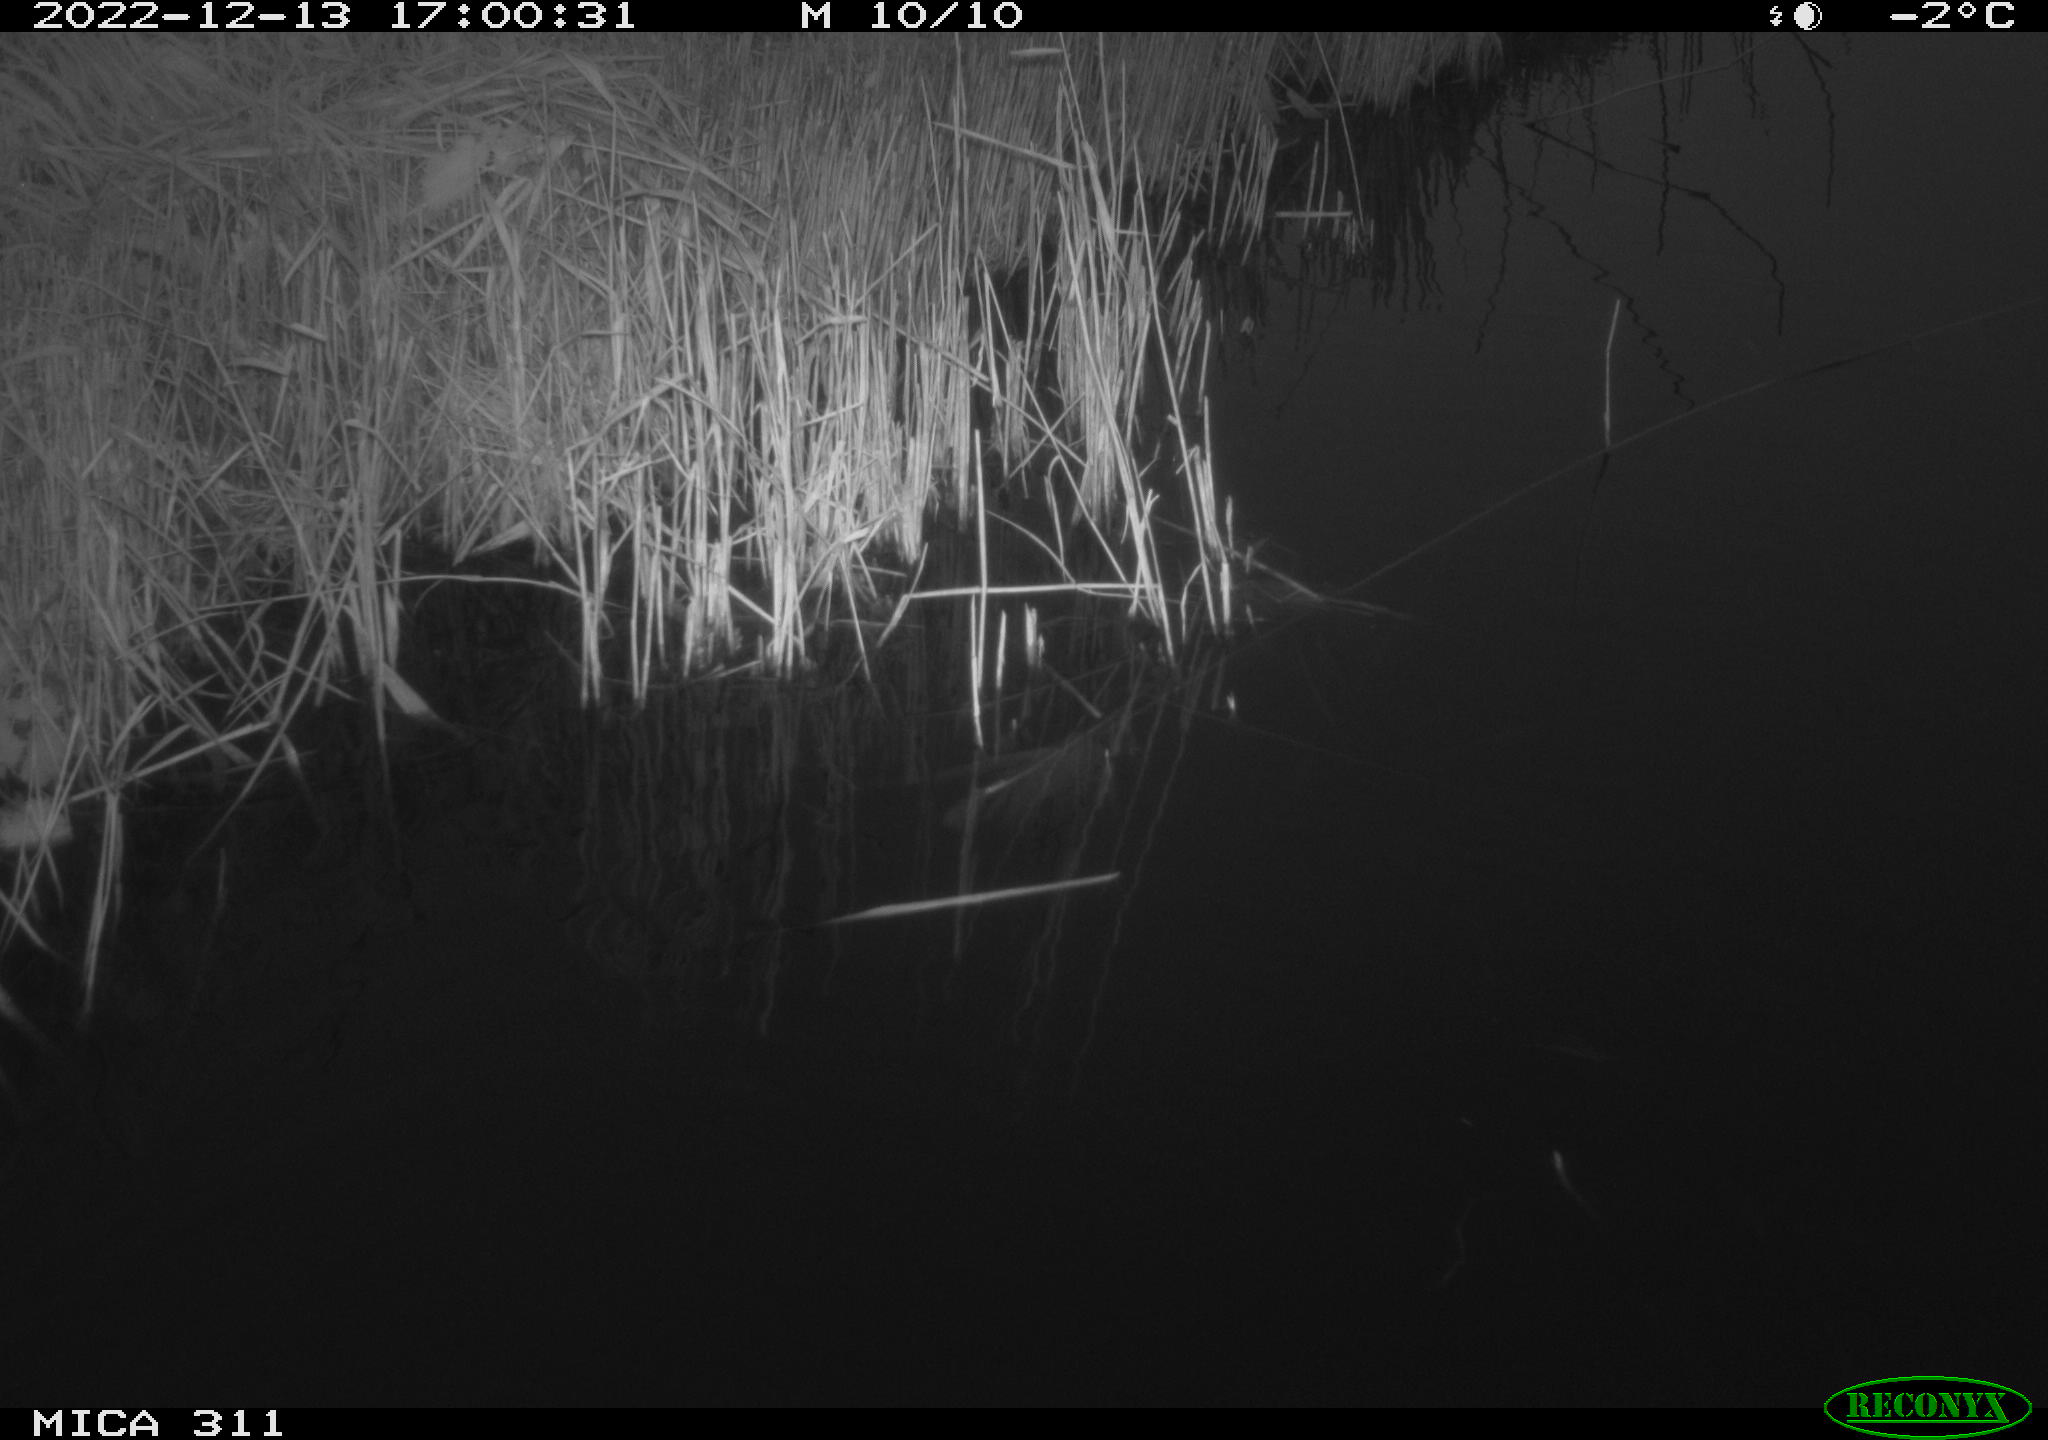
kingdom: Animalia
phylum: Chordata
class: Aves
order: Anseriformes
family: Anatidae
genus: Anas
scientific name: Anas
